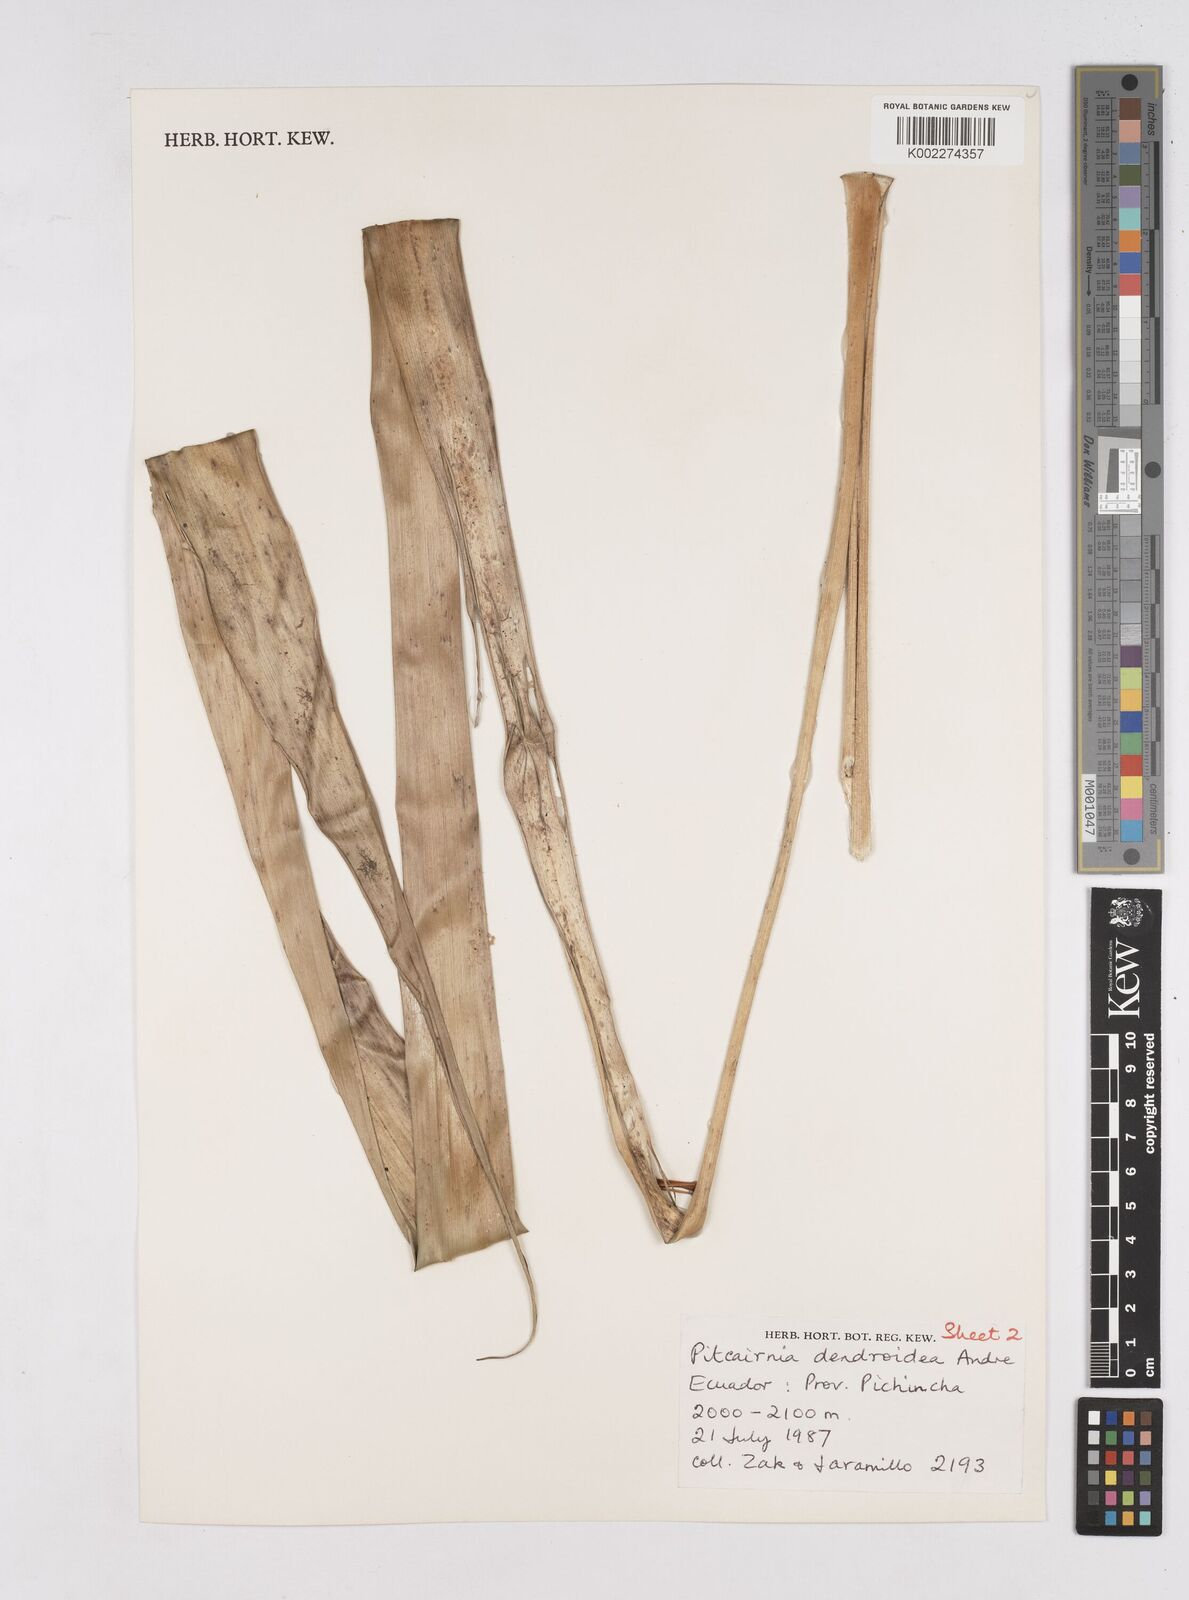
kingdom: Plantae
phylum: Tracheophyta
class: Liliopsida
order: Poales
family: Bromeliaceae
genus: Pitcairnia
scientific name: Pitcairnia dendroidea
